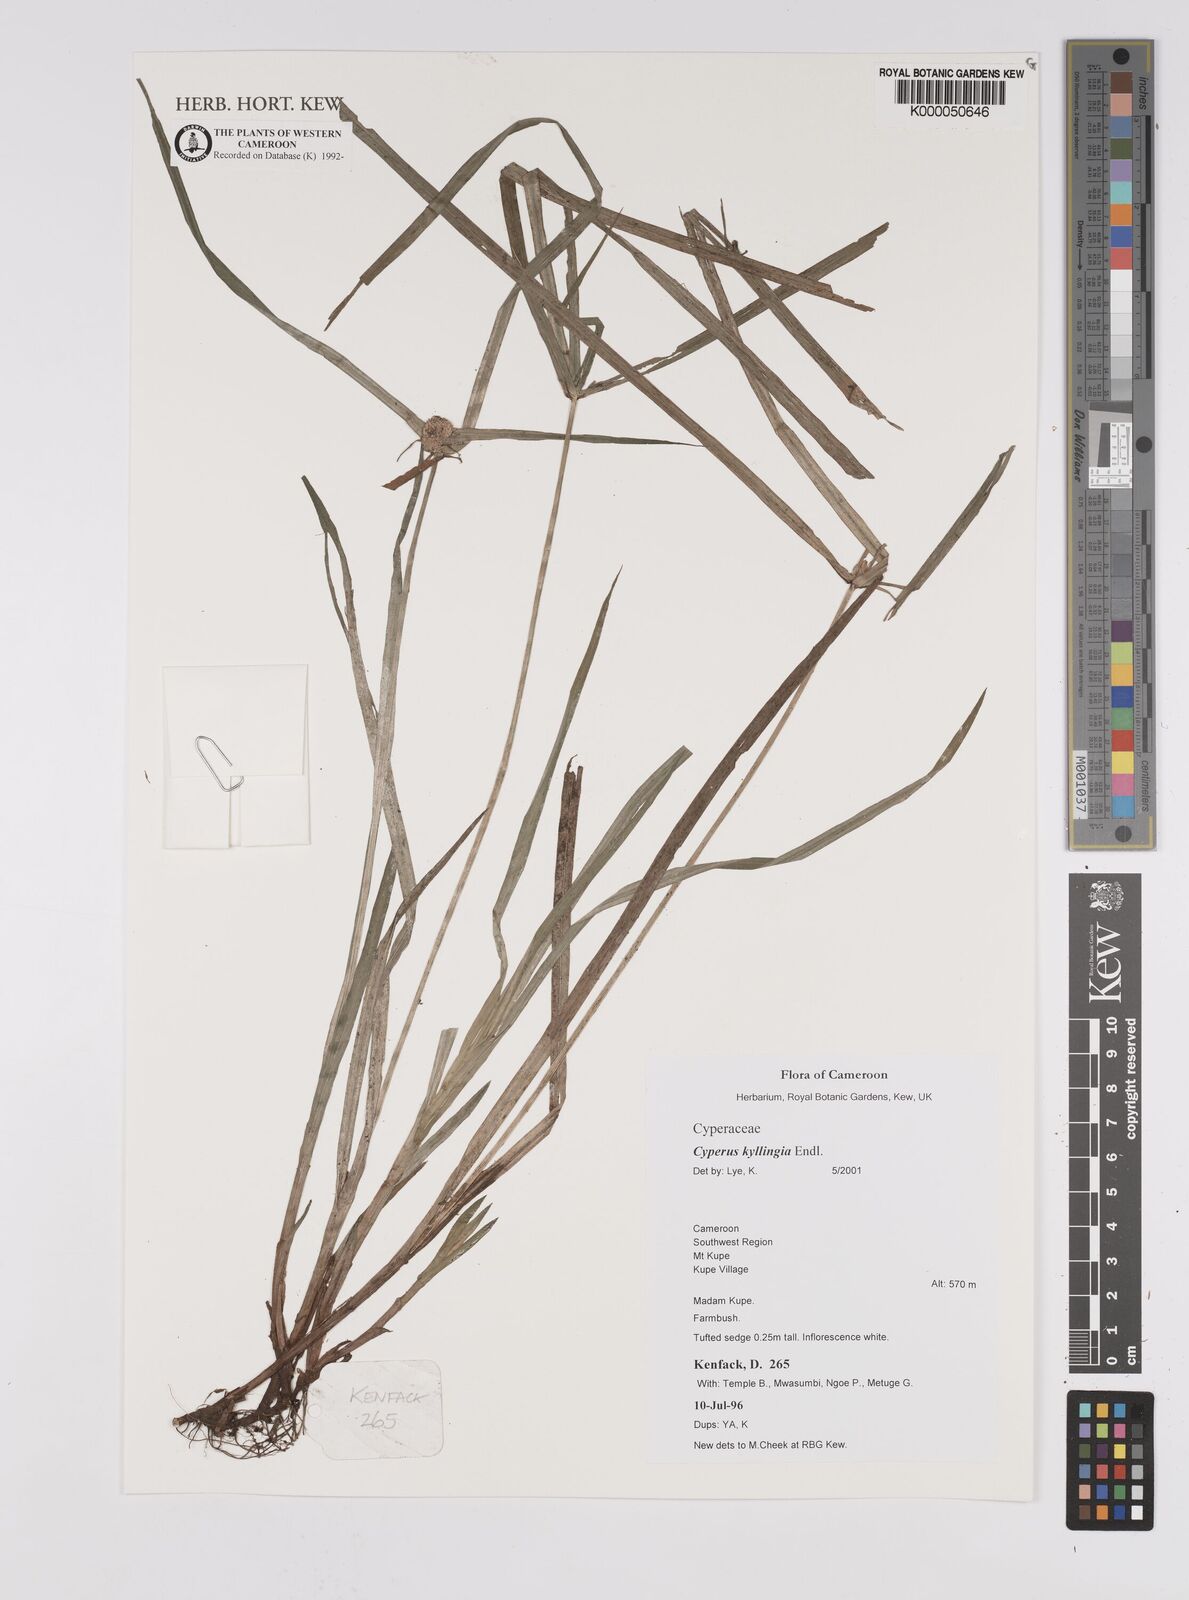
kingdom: Plantae
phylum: Tracheophyta
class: Liliopsida
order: Poales
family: Cyperaceae
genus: Rhynchospora
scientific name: Rhynchospora colorata
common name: Star sedge
